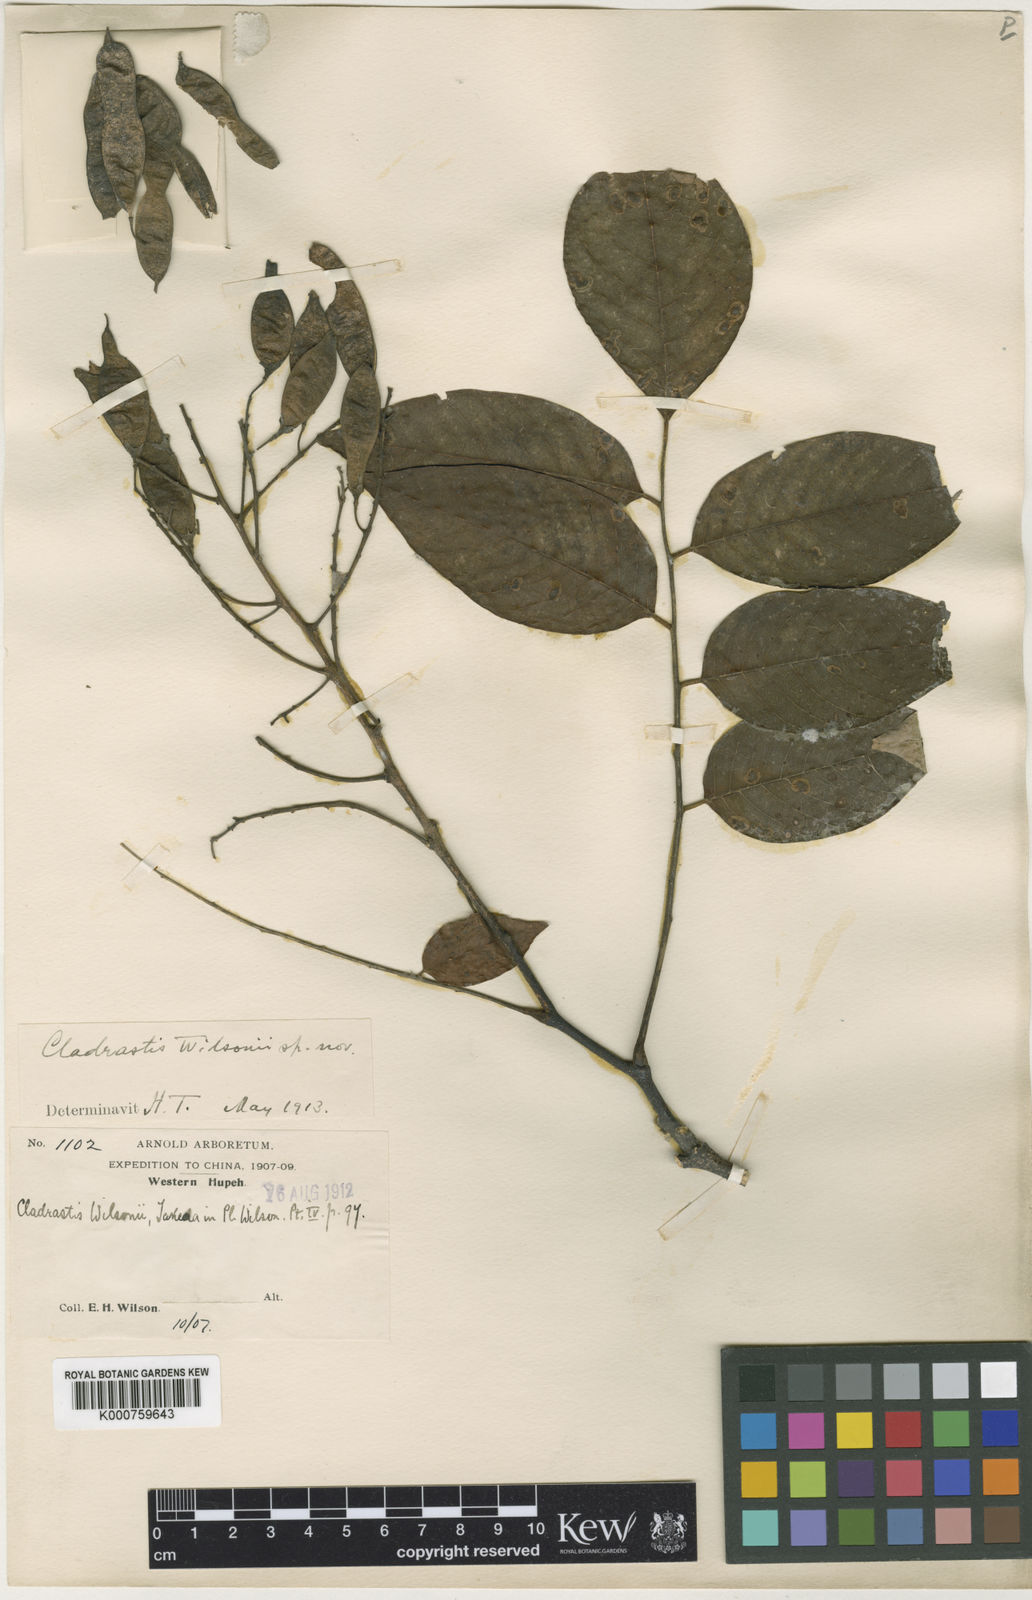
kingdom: Plantae
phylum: Tracheophyta
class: Magnoliopsida
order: Fabales
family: Fabaceae
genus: Cladrastis
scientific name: Cladrastis wilsonii
